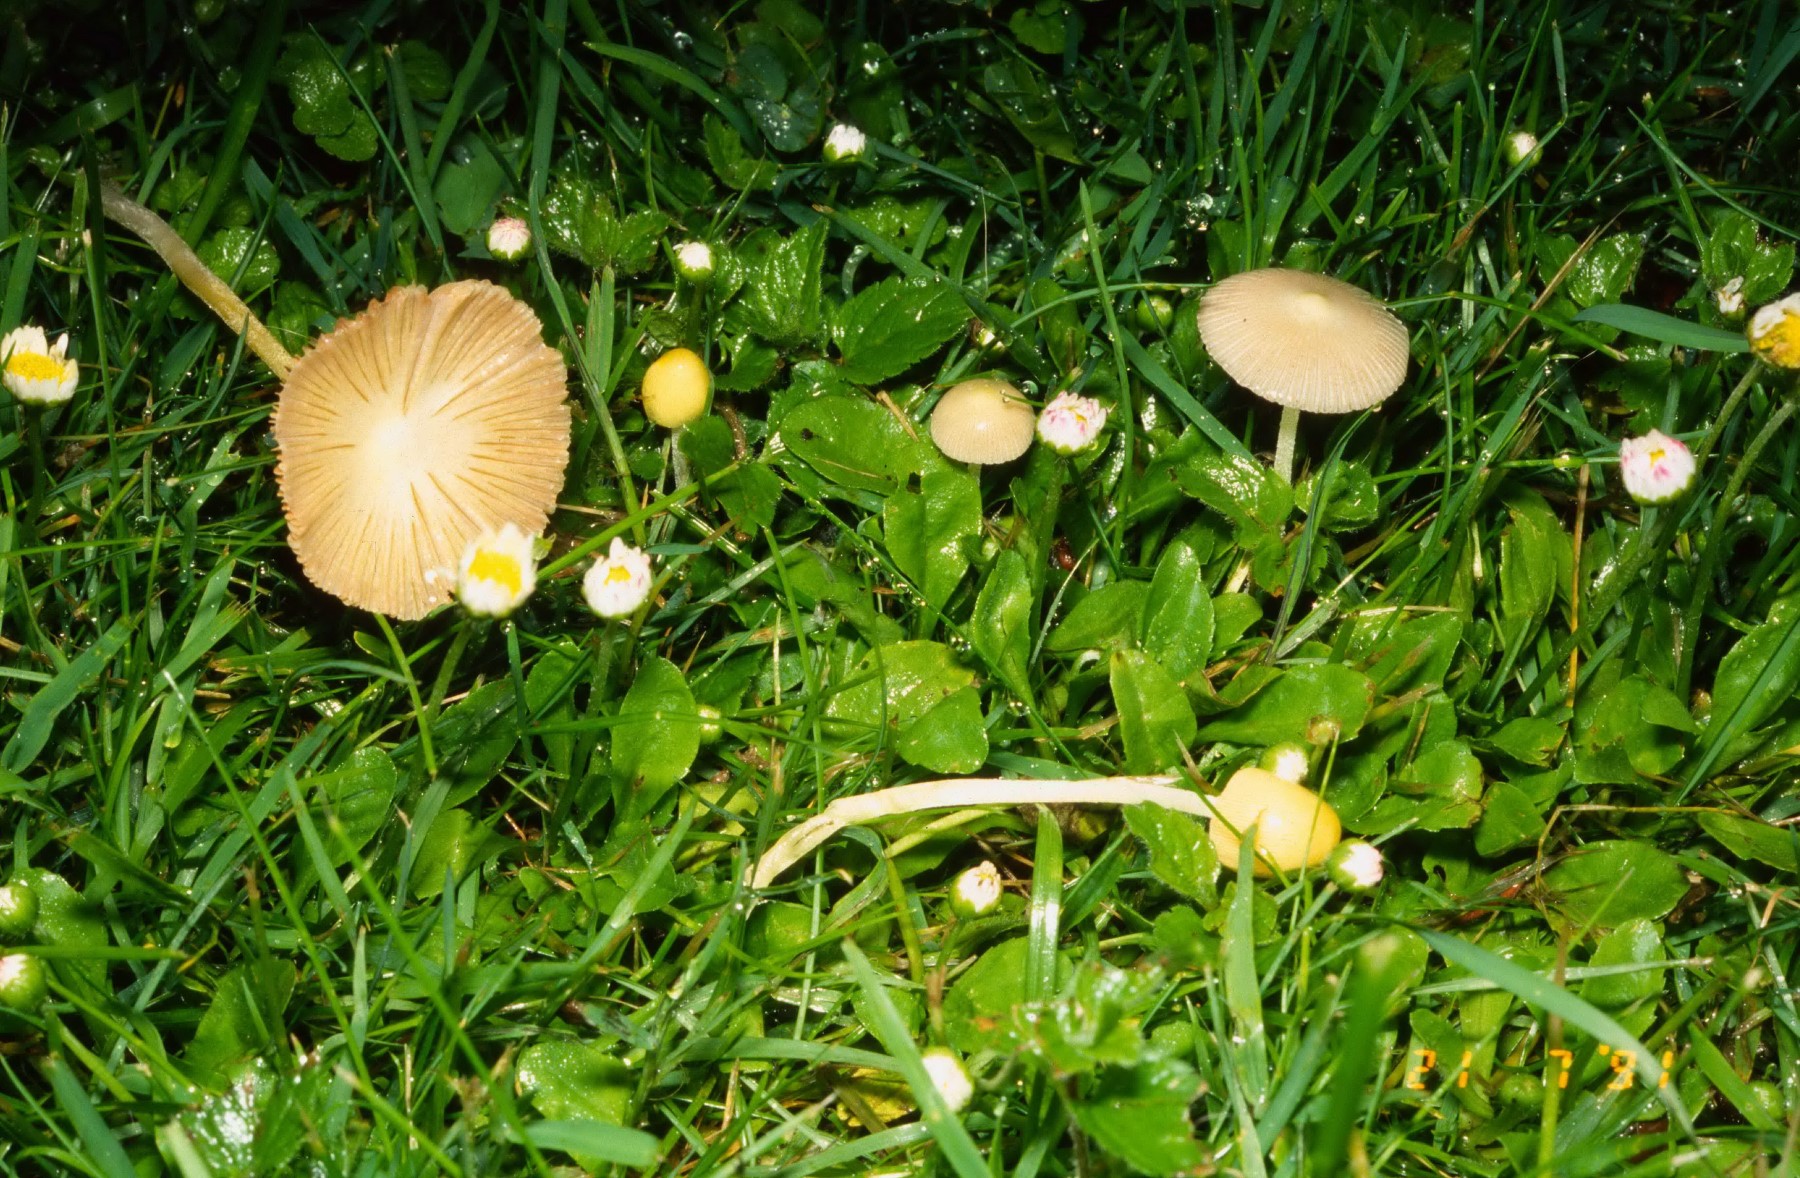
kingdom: Fungi
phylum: Basidiomycota
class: Agaricomycetes
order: Agaricales
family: Bolbitiaceae
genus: Bolbitius
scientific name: Bolbitius titubans
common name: almindelig gulhat
